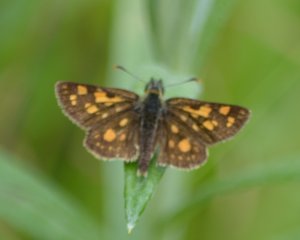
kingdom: Animalia
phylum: Arthropoda
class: Insecta
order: Lepidoptera
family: Hesperiidae
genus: Carterocephalus
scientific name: Carterocephalus palaemon
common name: Chequered Skipper
